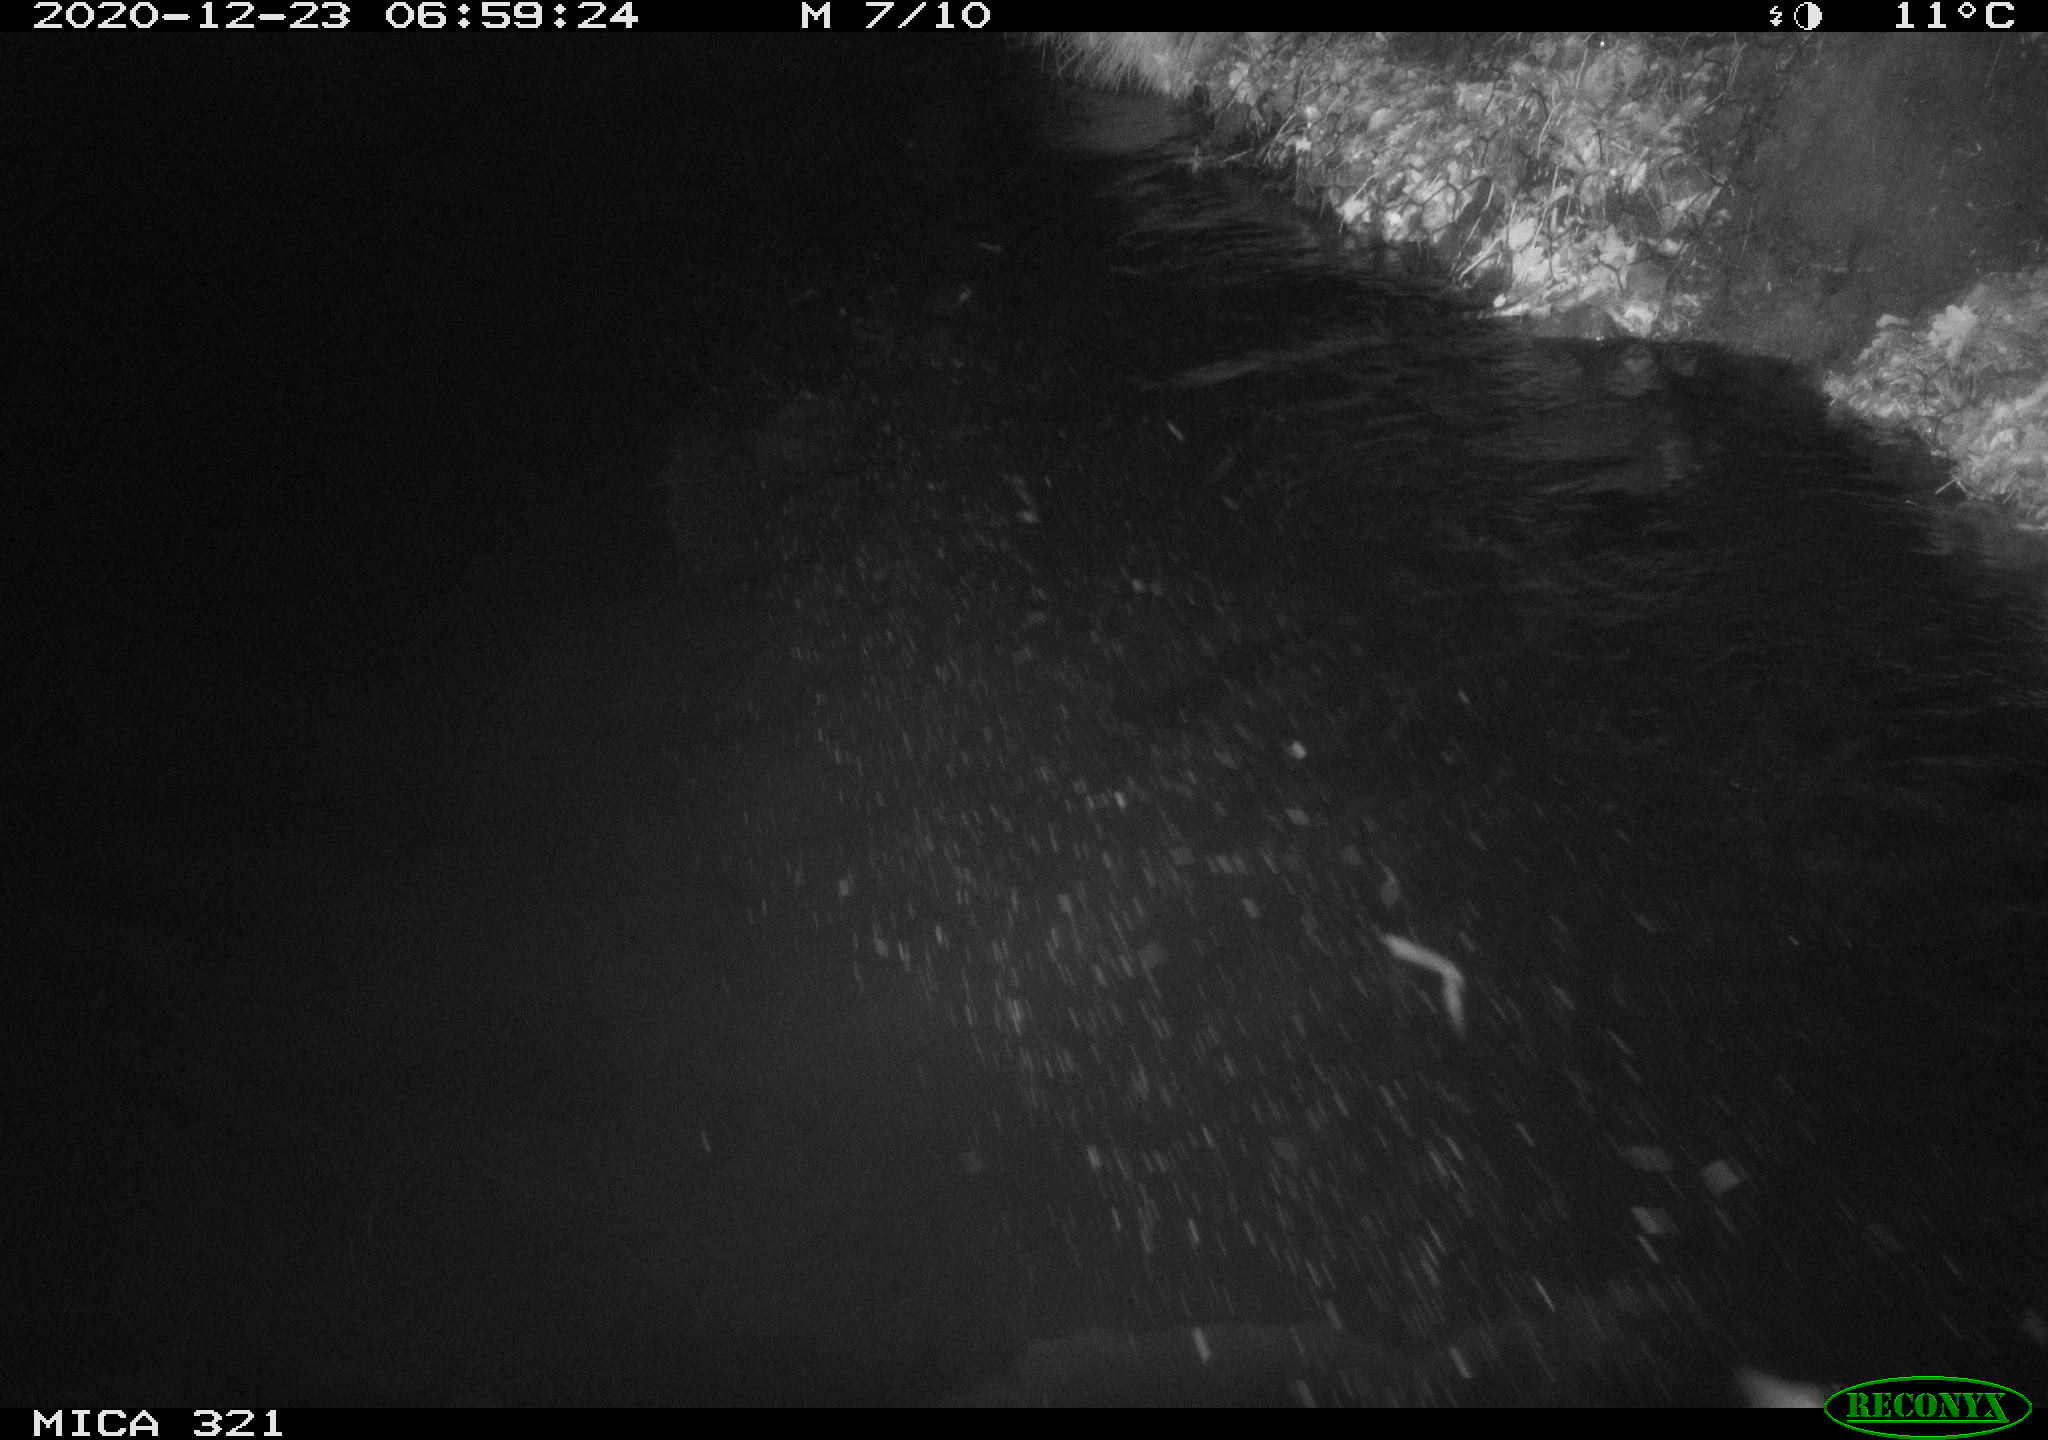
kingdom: Animalia
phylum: Chordata
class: Aves
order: Anseriformes
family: Anatidae
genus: Anas
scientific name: Anas platyrhynchos
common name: Mallard
